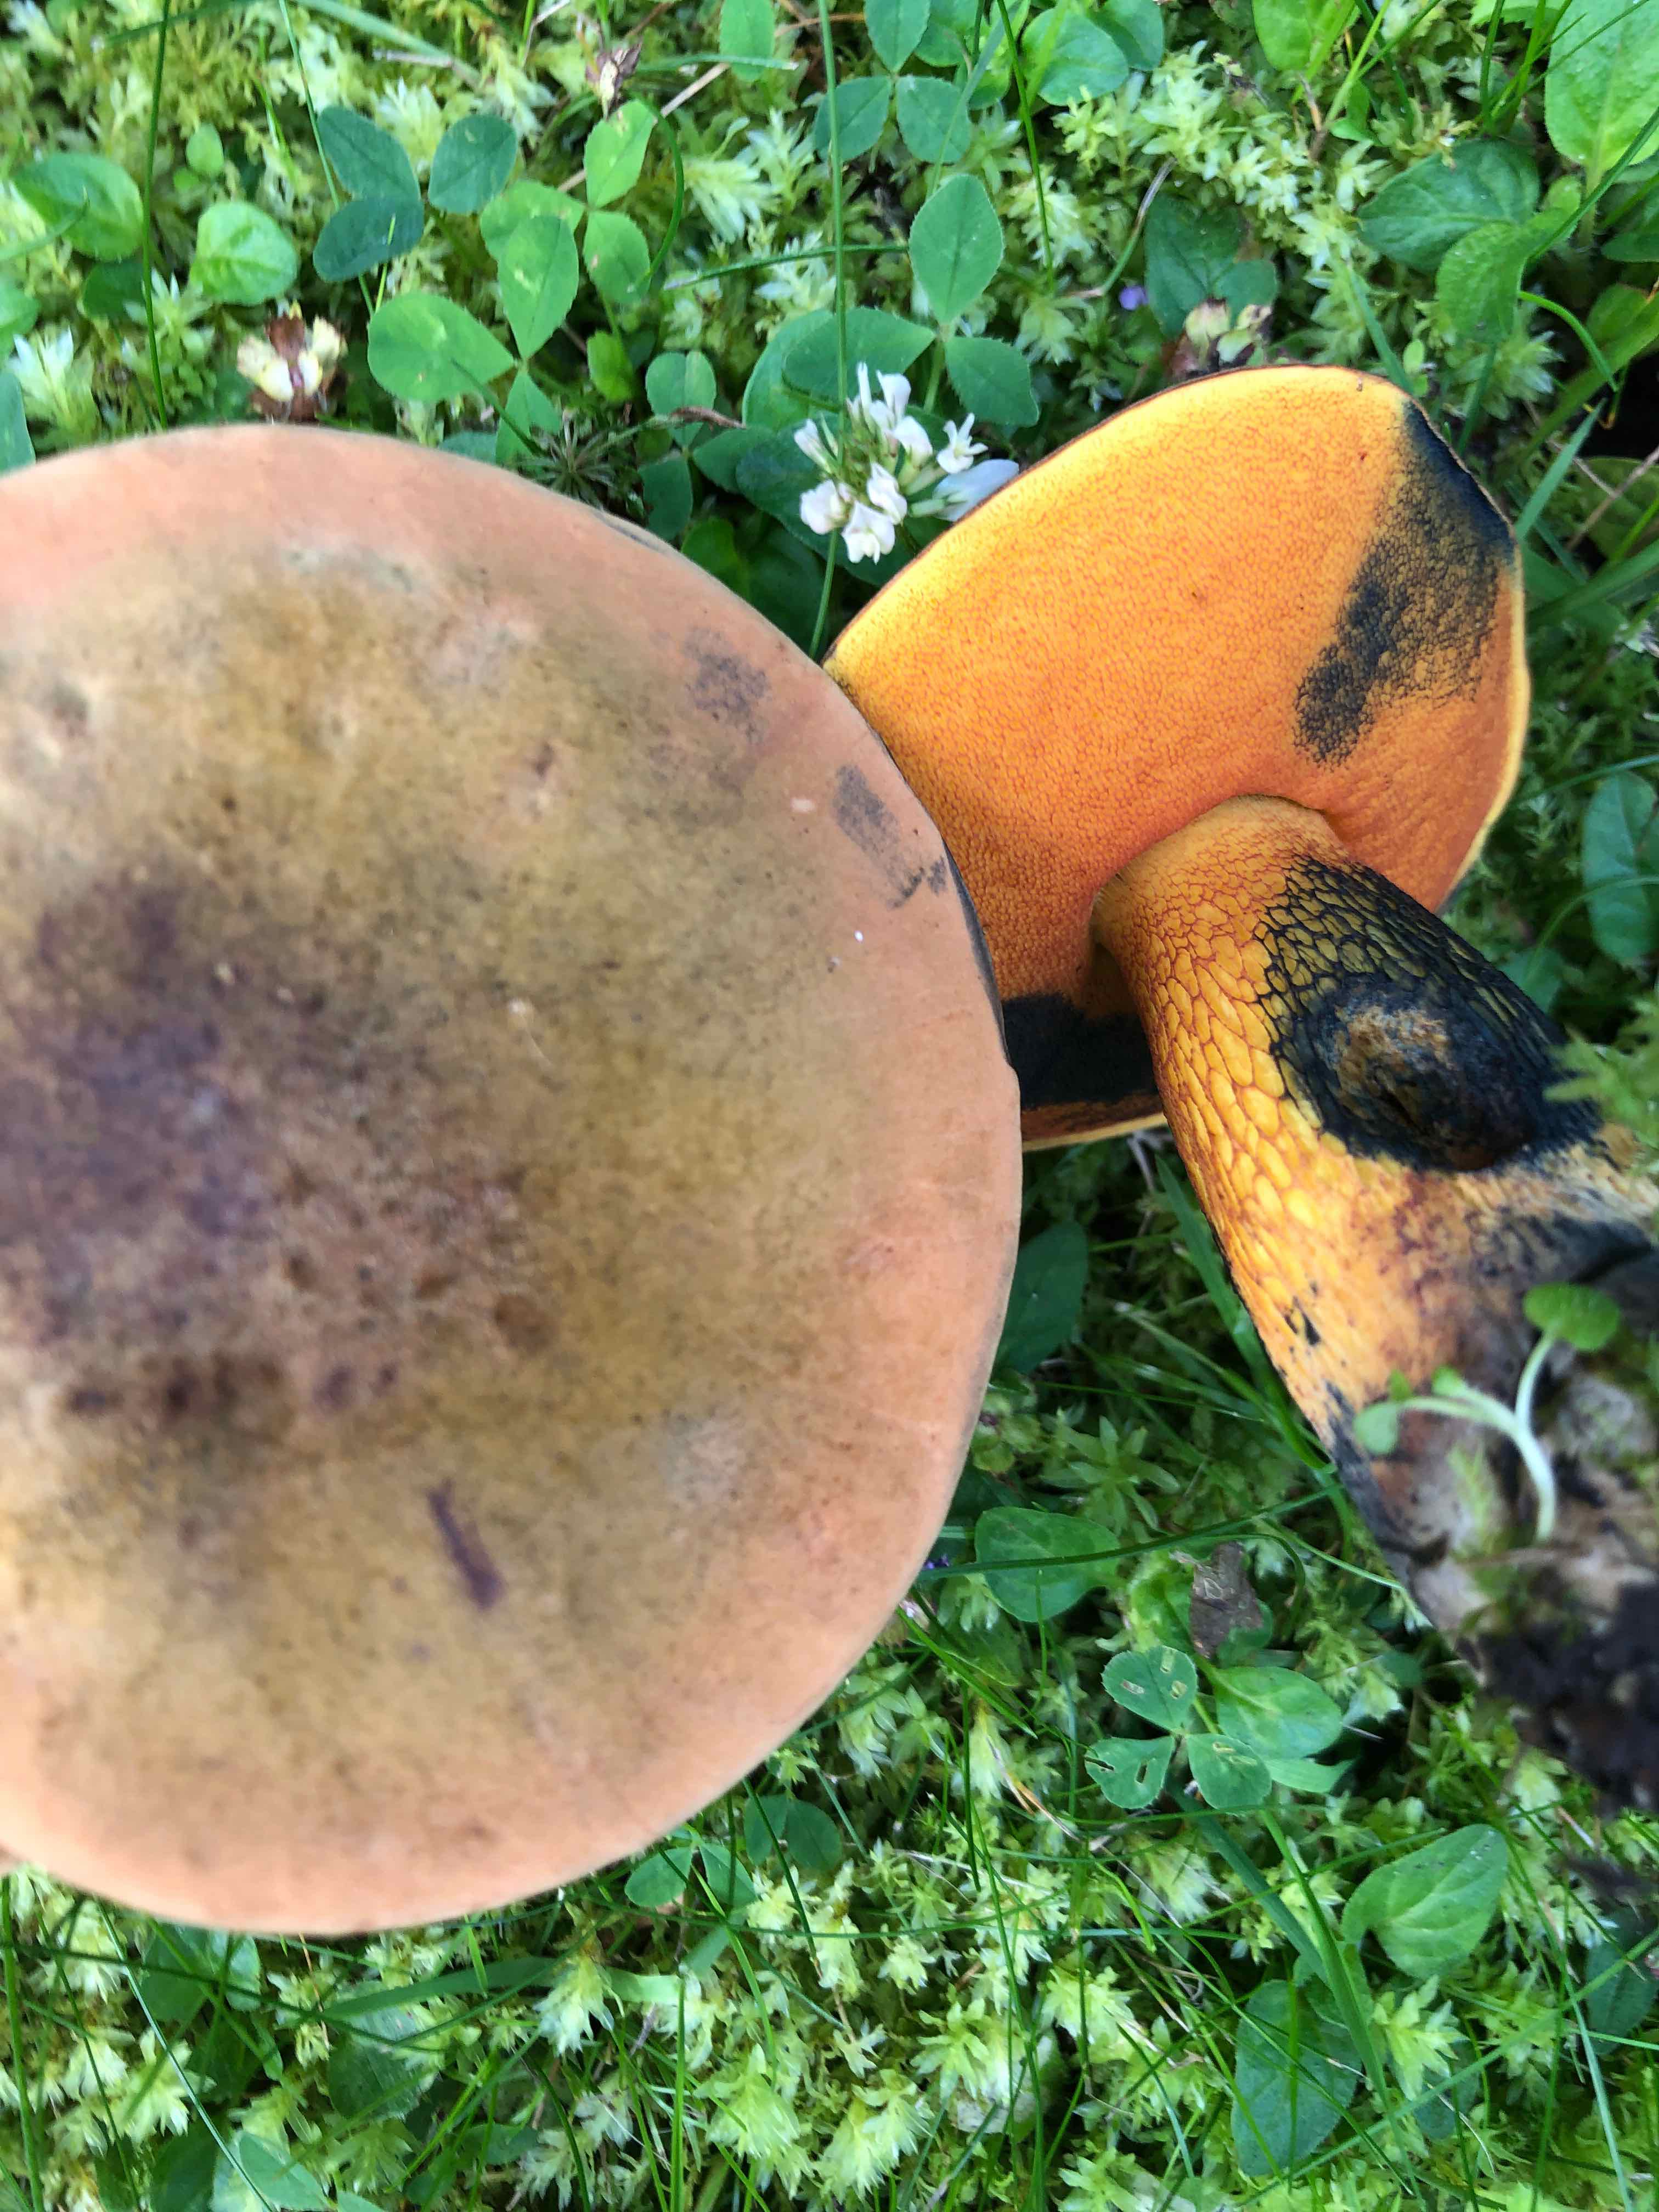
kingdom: Fungi
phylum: Basidiomycota
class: Agaricomycetes
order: Boletales
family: Boletaceae
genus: Suillellus
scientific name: Suillellus luridus
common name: netstokket indigorørhat
